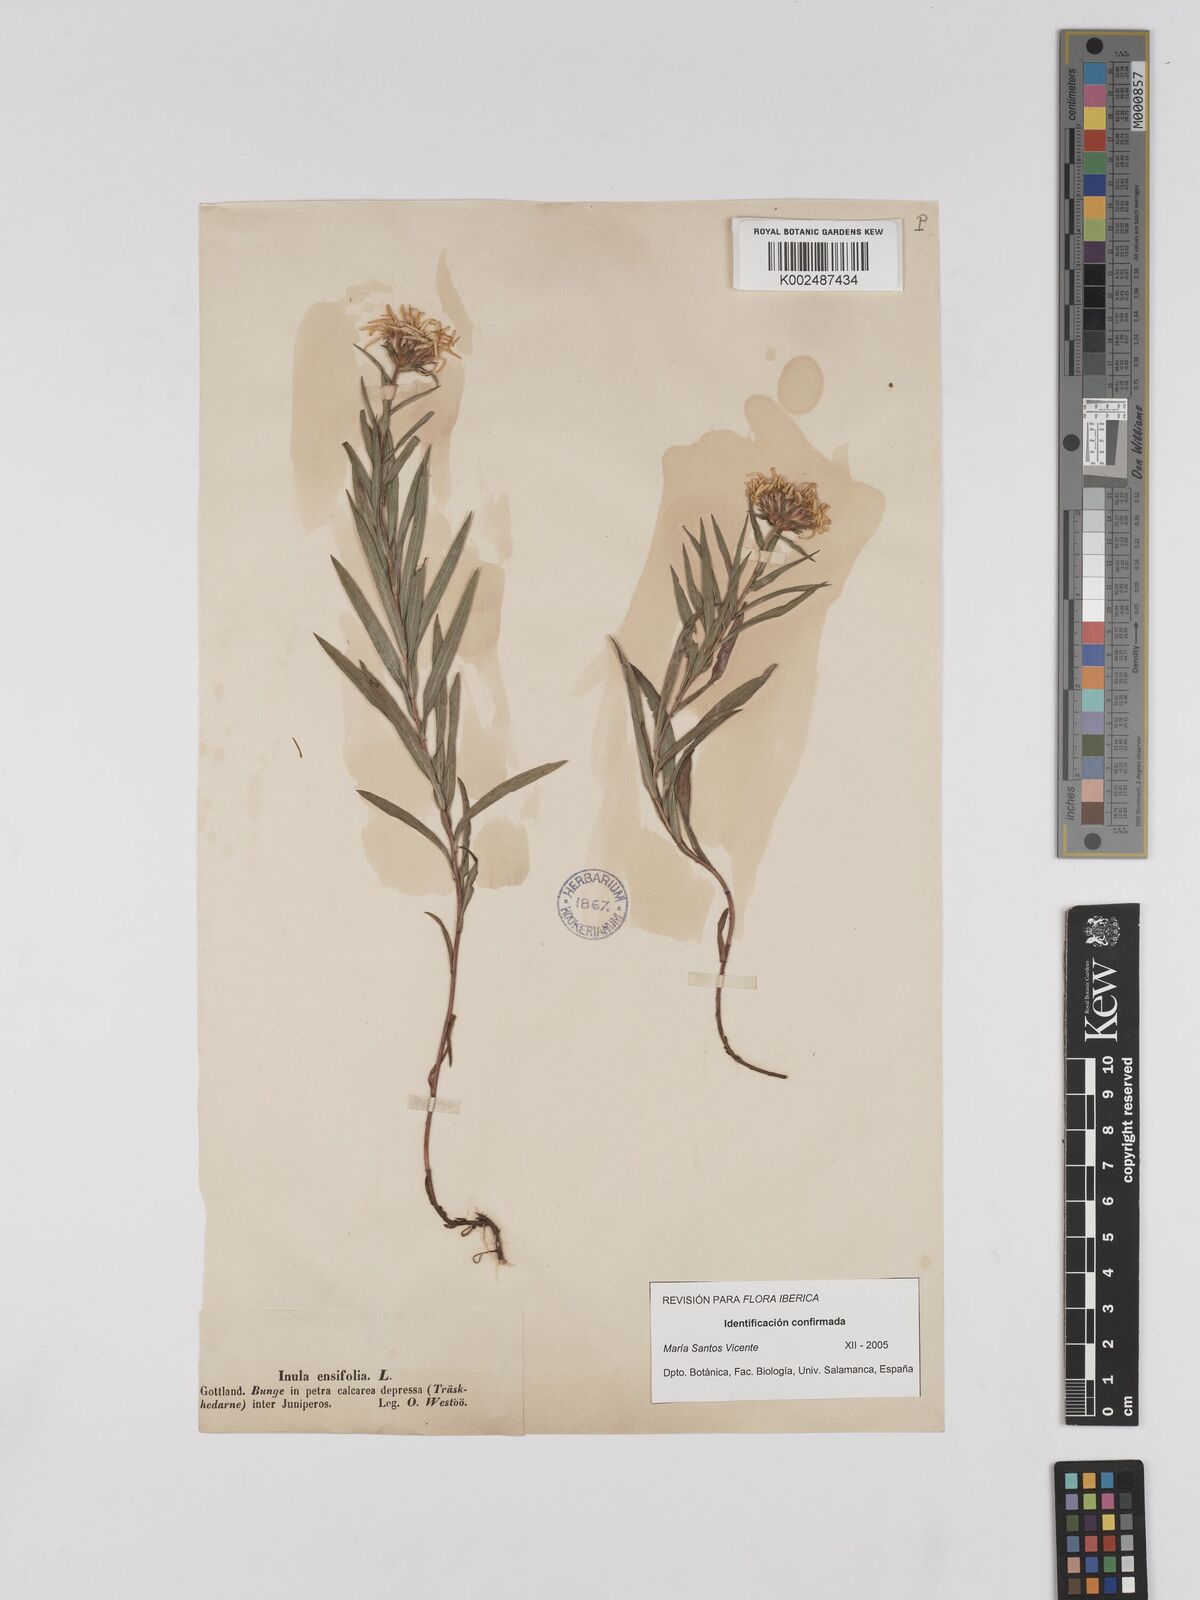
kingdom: Plantae
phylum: Tracheophyta
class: Magnoliopsida
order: Asterales
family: Asteraceae
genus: Pentanema
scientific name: Pentanema ensifolium
